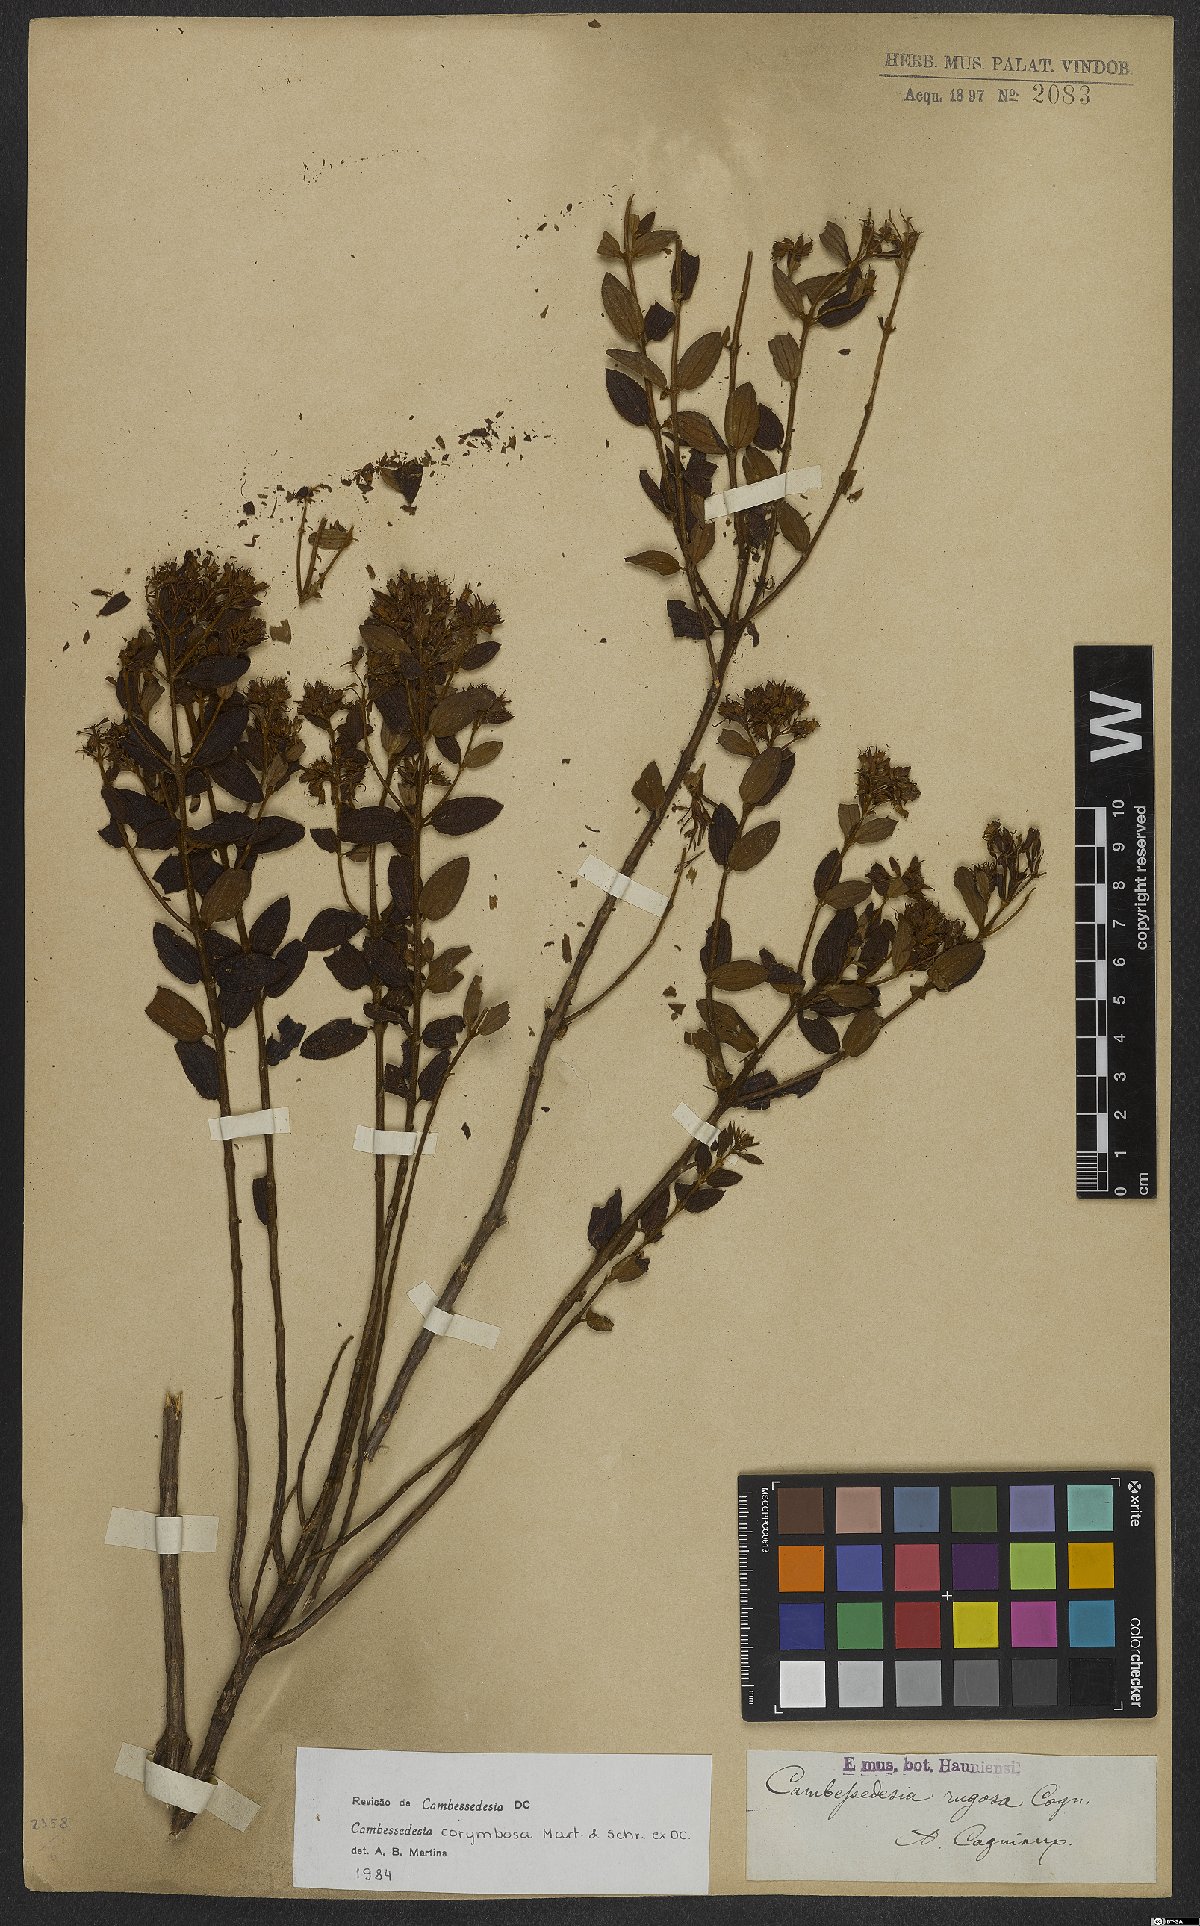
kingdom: Plantae
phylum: Tracheophyta
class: Magnoliopsida
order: Myrtales
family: Melastomataceae
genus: Cambessedesia
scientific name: Cambessedesia corymbosa
